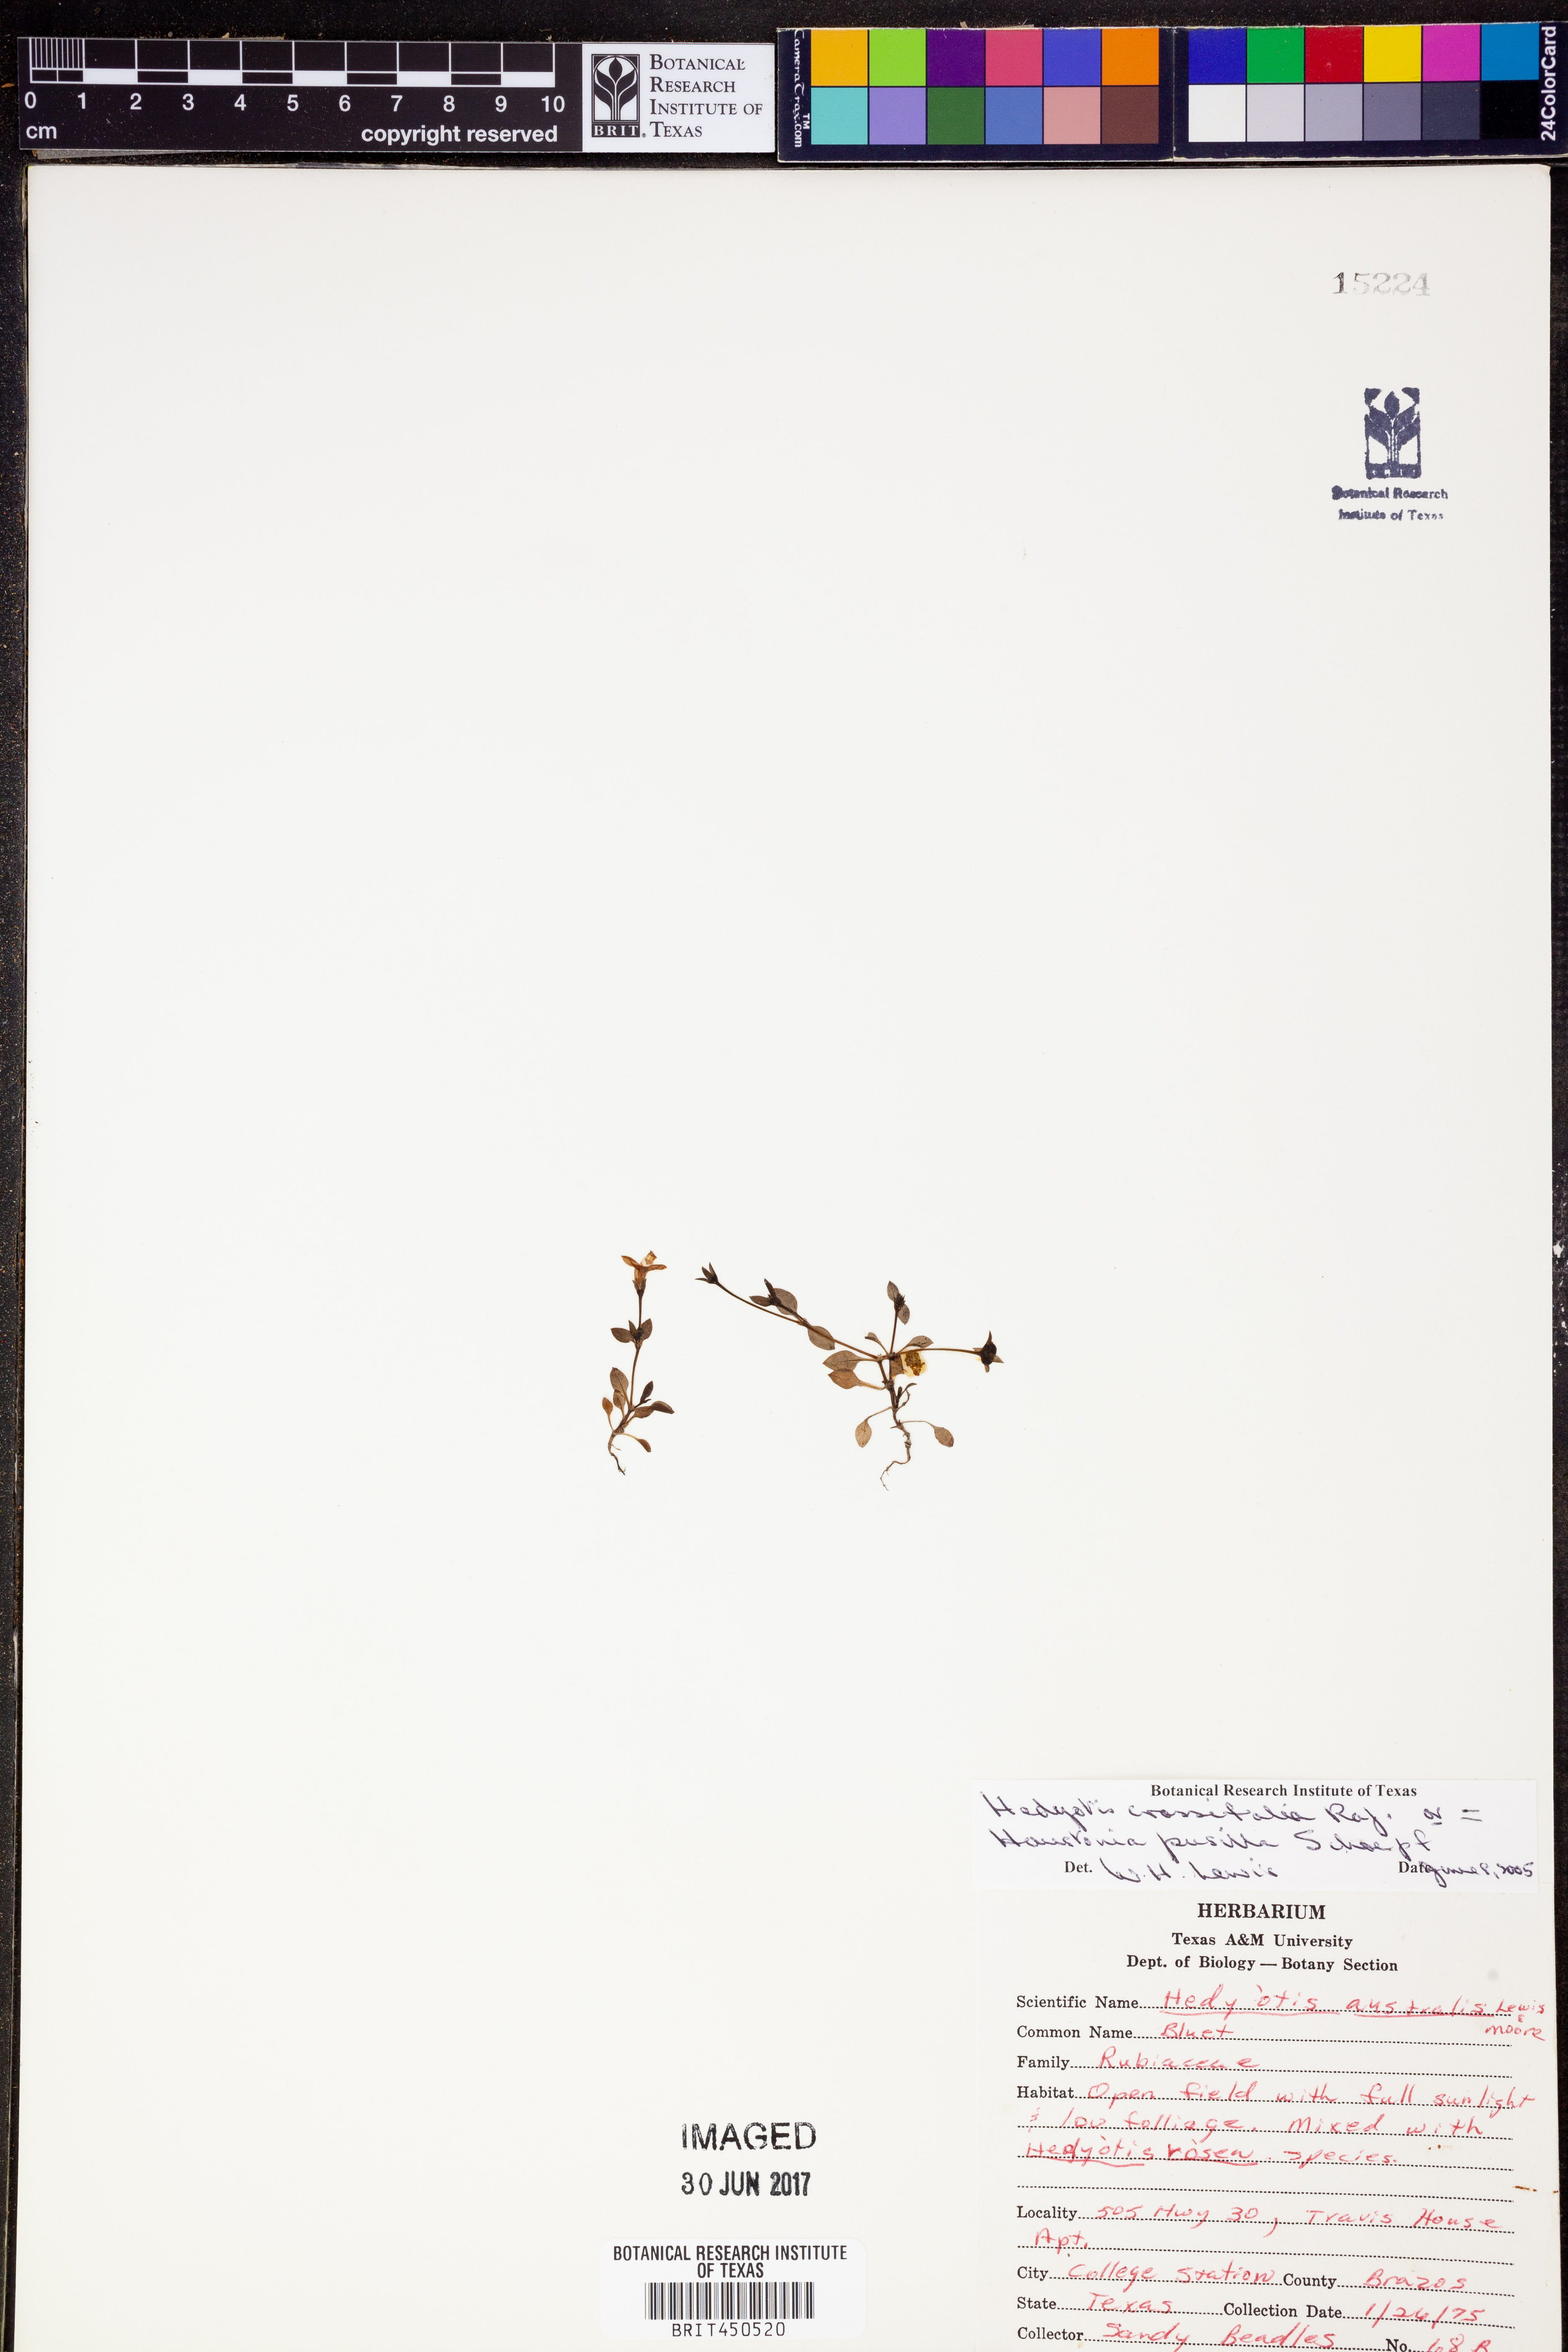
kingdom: Plantae
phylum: Tracheophyta
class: Magnoliopsida
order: Gentianales
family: Rubiaceae
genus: Houstonia
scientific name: Houstonia pusilla
